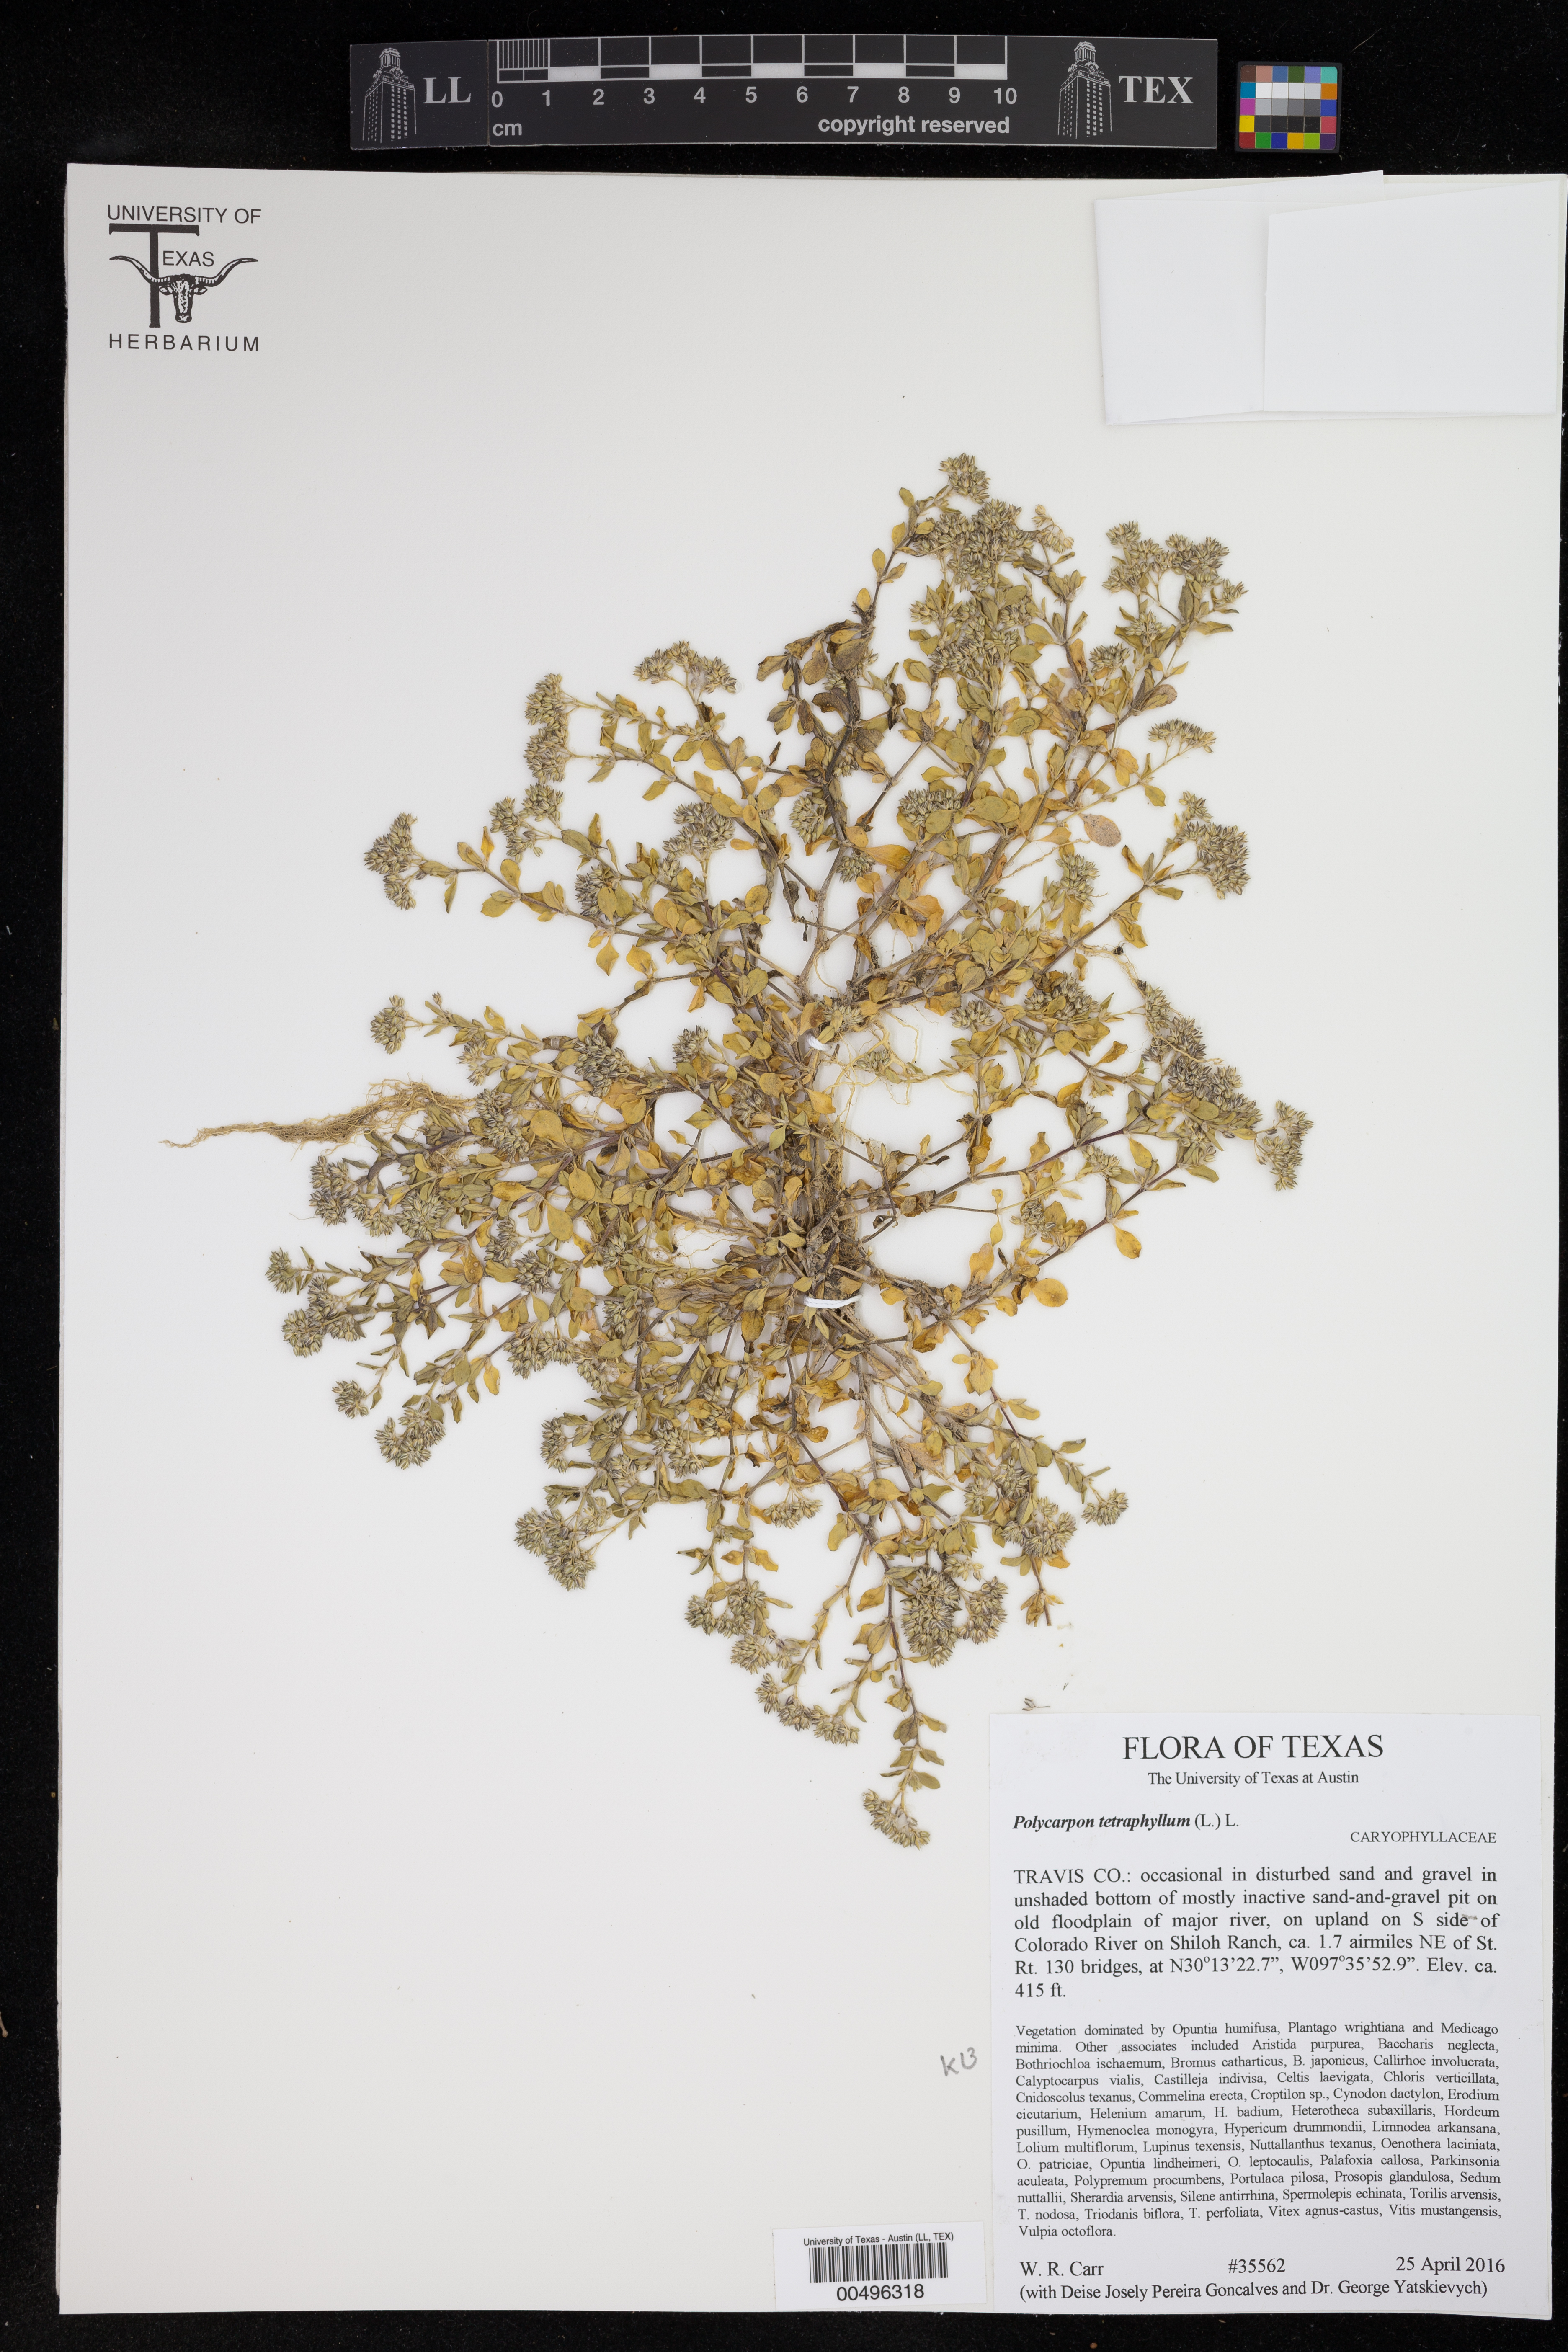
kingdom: Plantae
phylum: Tracheophyta
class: Magnoliopsida
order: Caryophyllales
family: Caryophyllaceae
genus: Polycarpon
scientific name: Polycarpon tetraphyllum
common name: Four-leaved all-seed
